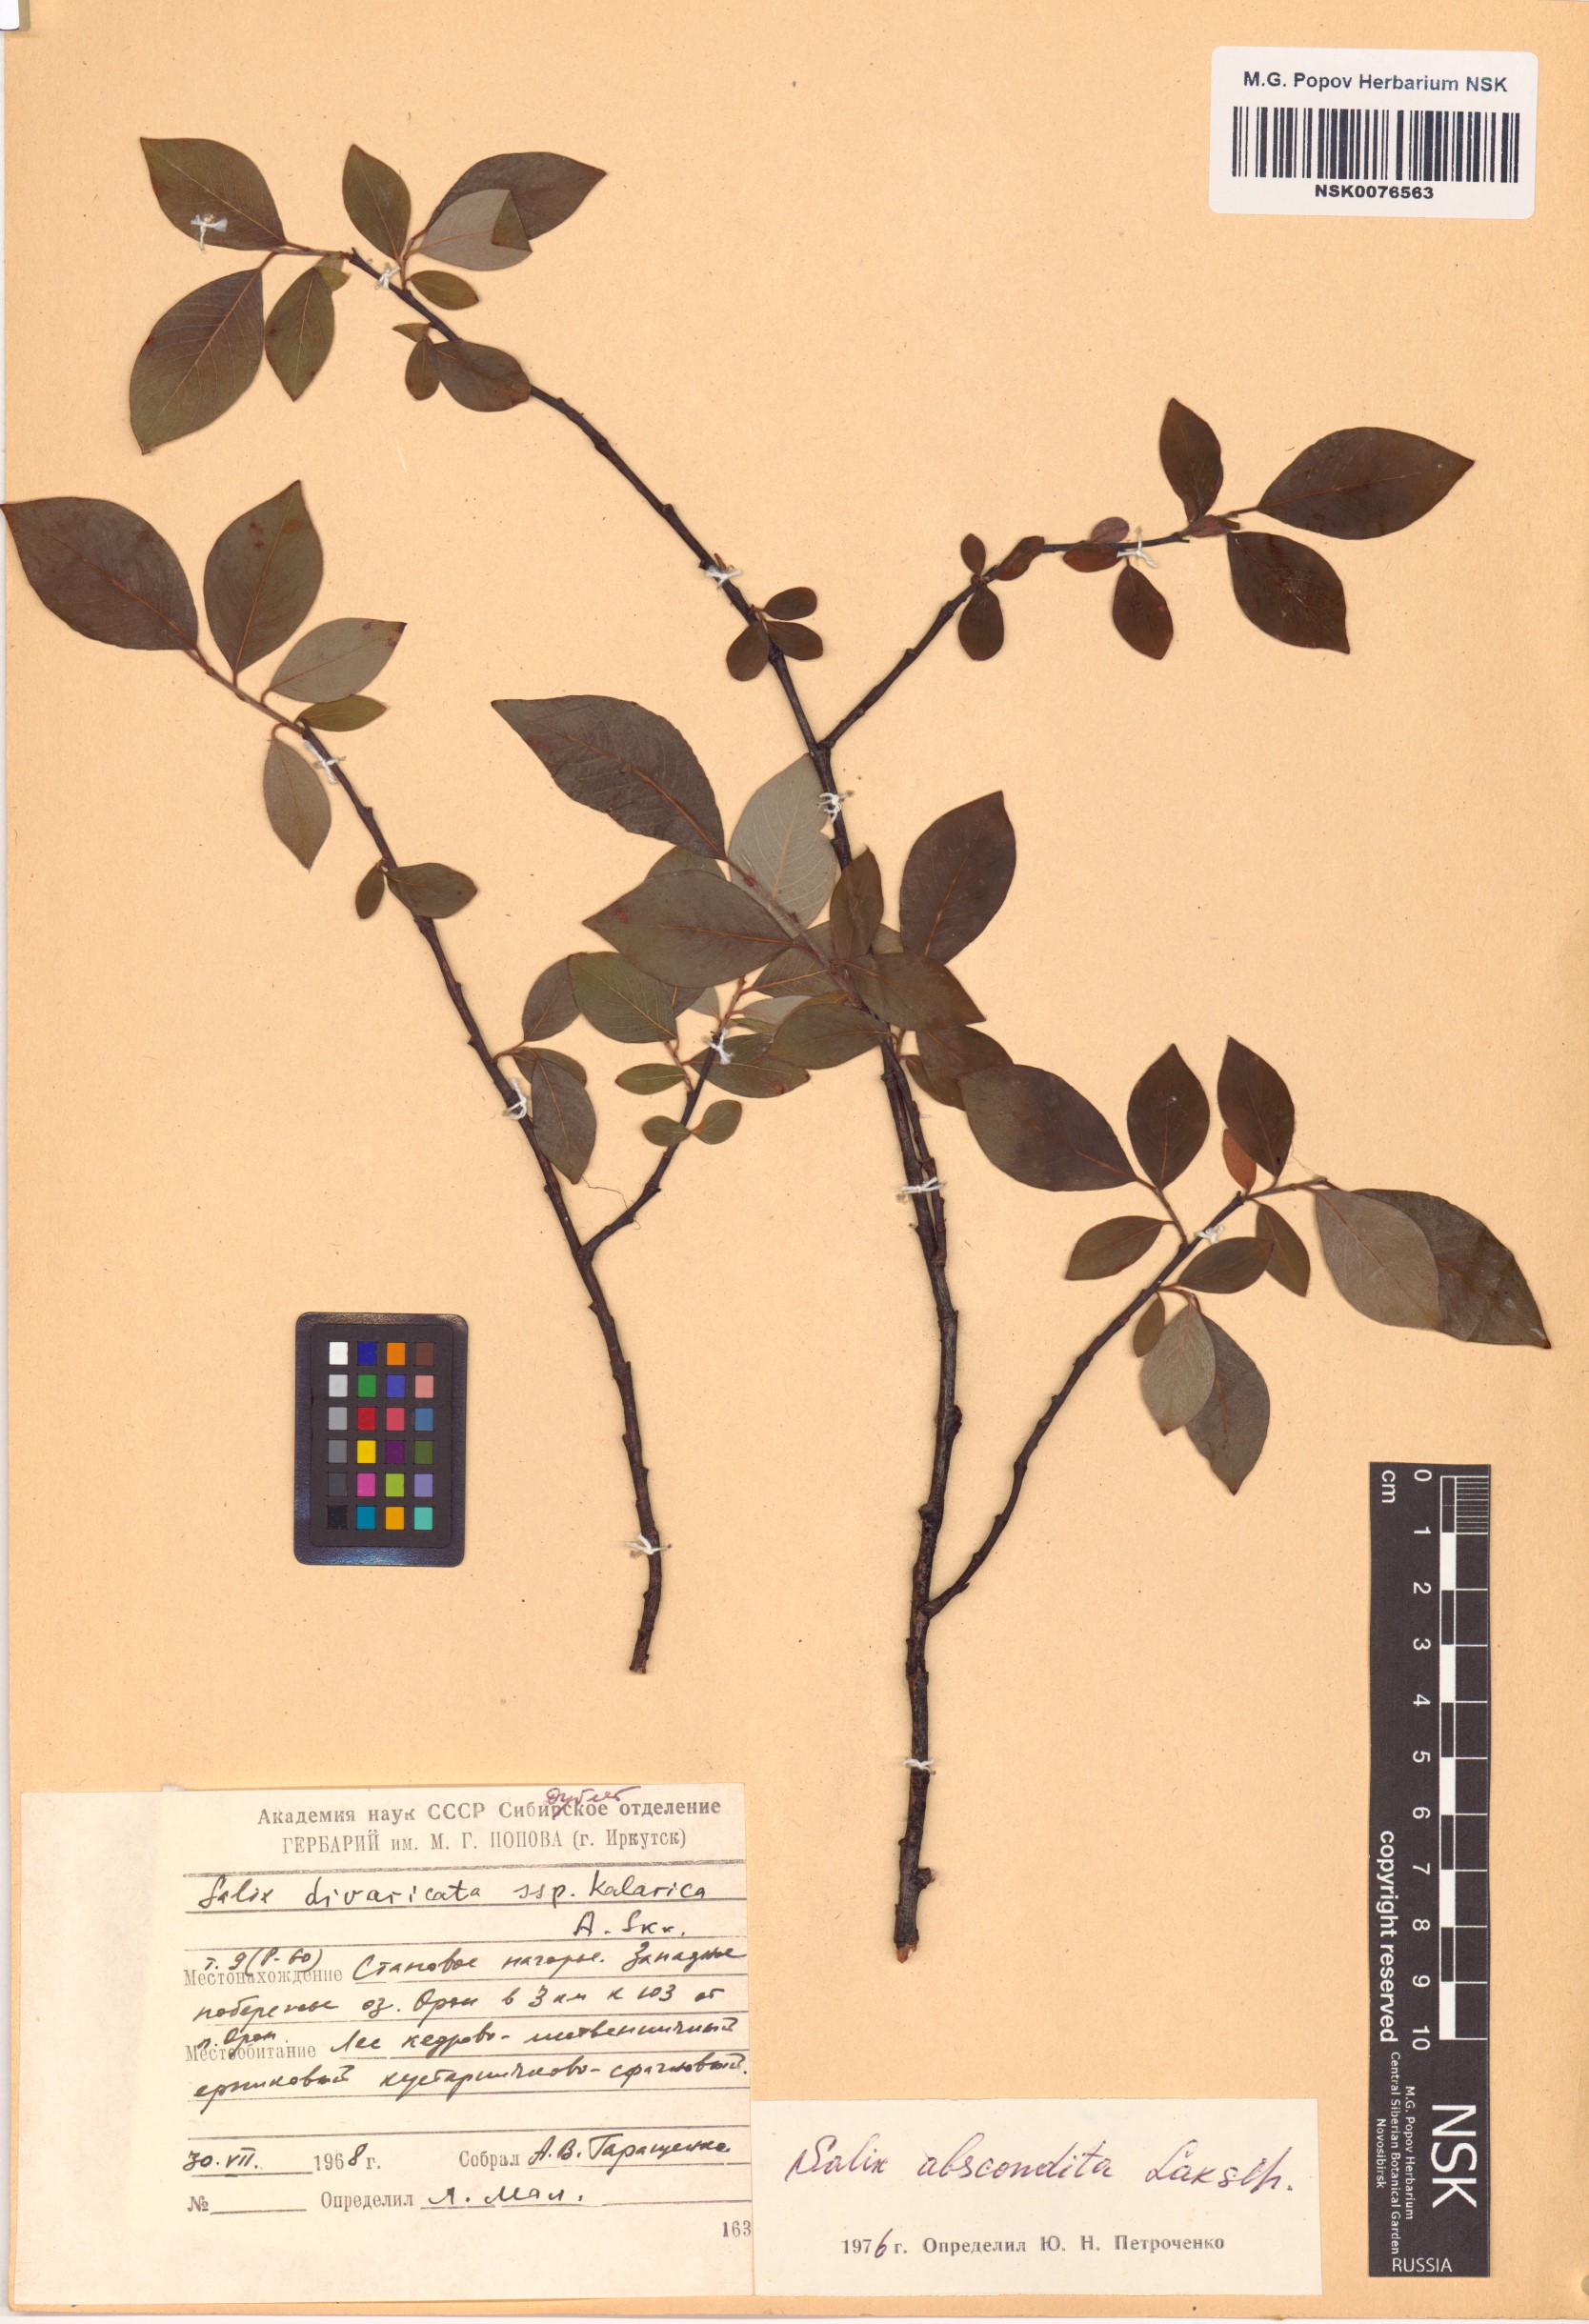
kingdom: Plantae
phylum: Tracheophyta
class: Magnoliopsida
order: Malpighiales
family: Salicaceae
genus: Salix
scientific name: Salix abscondita
